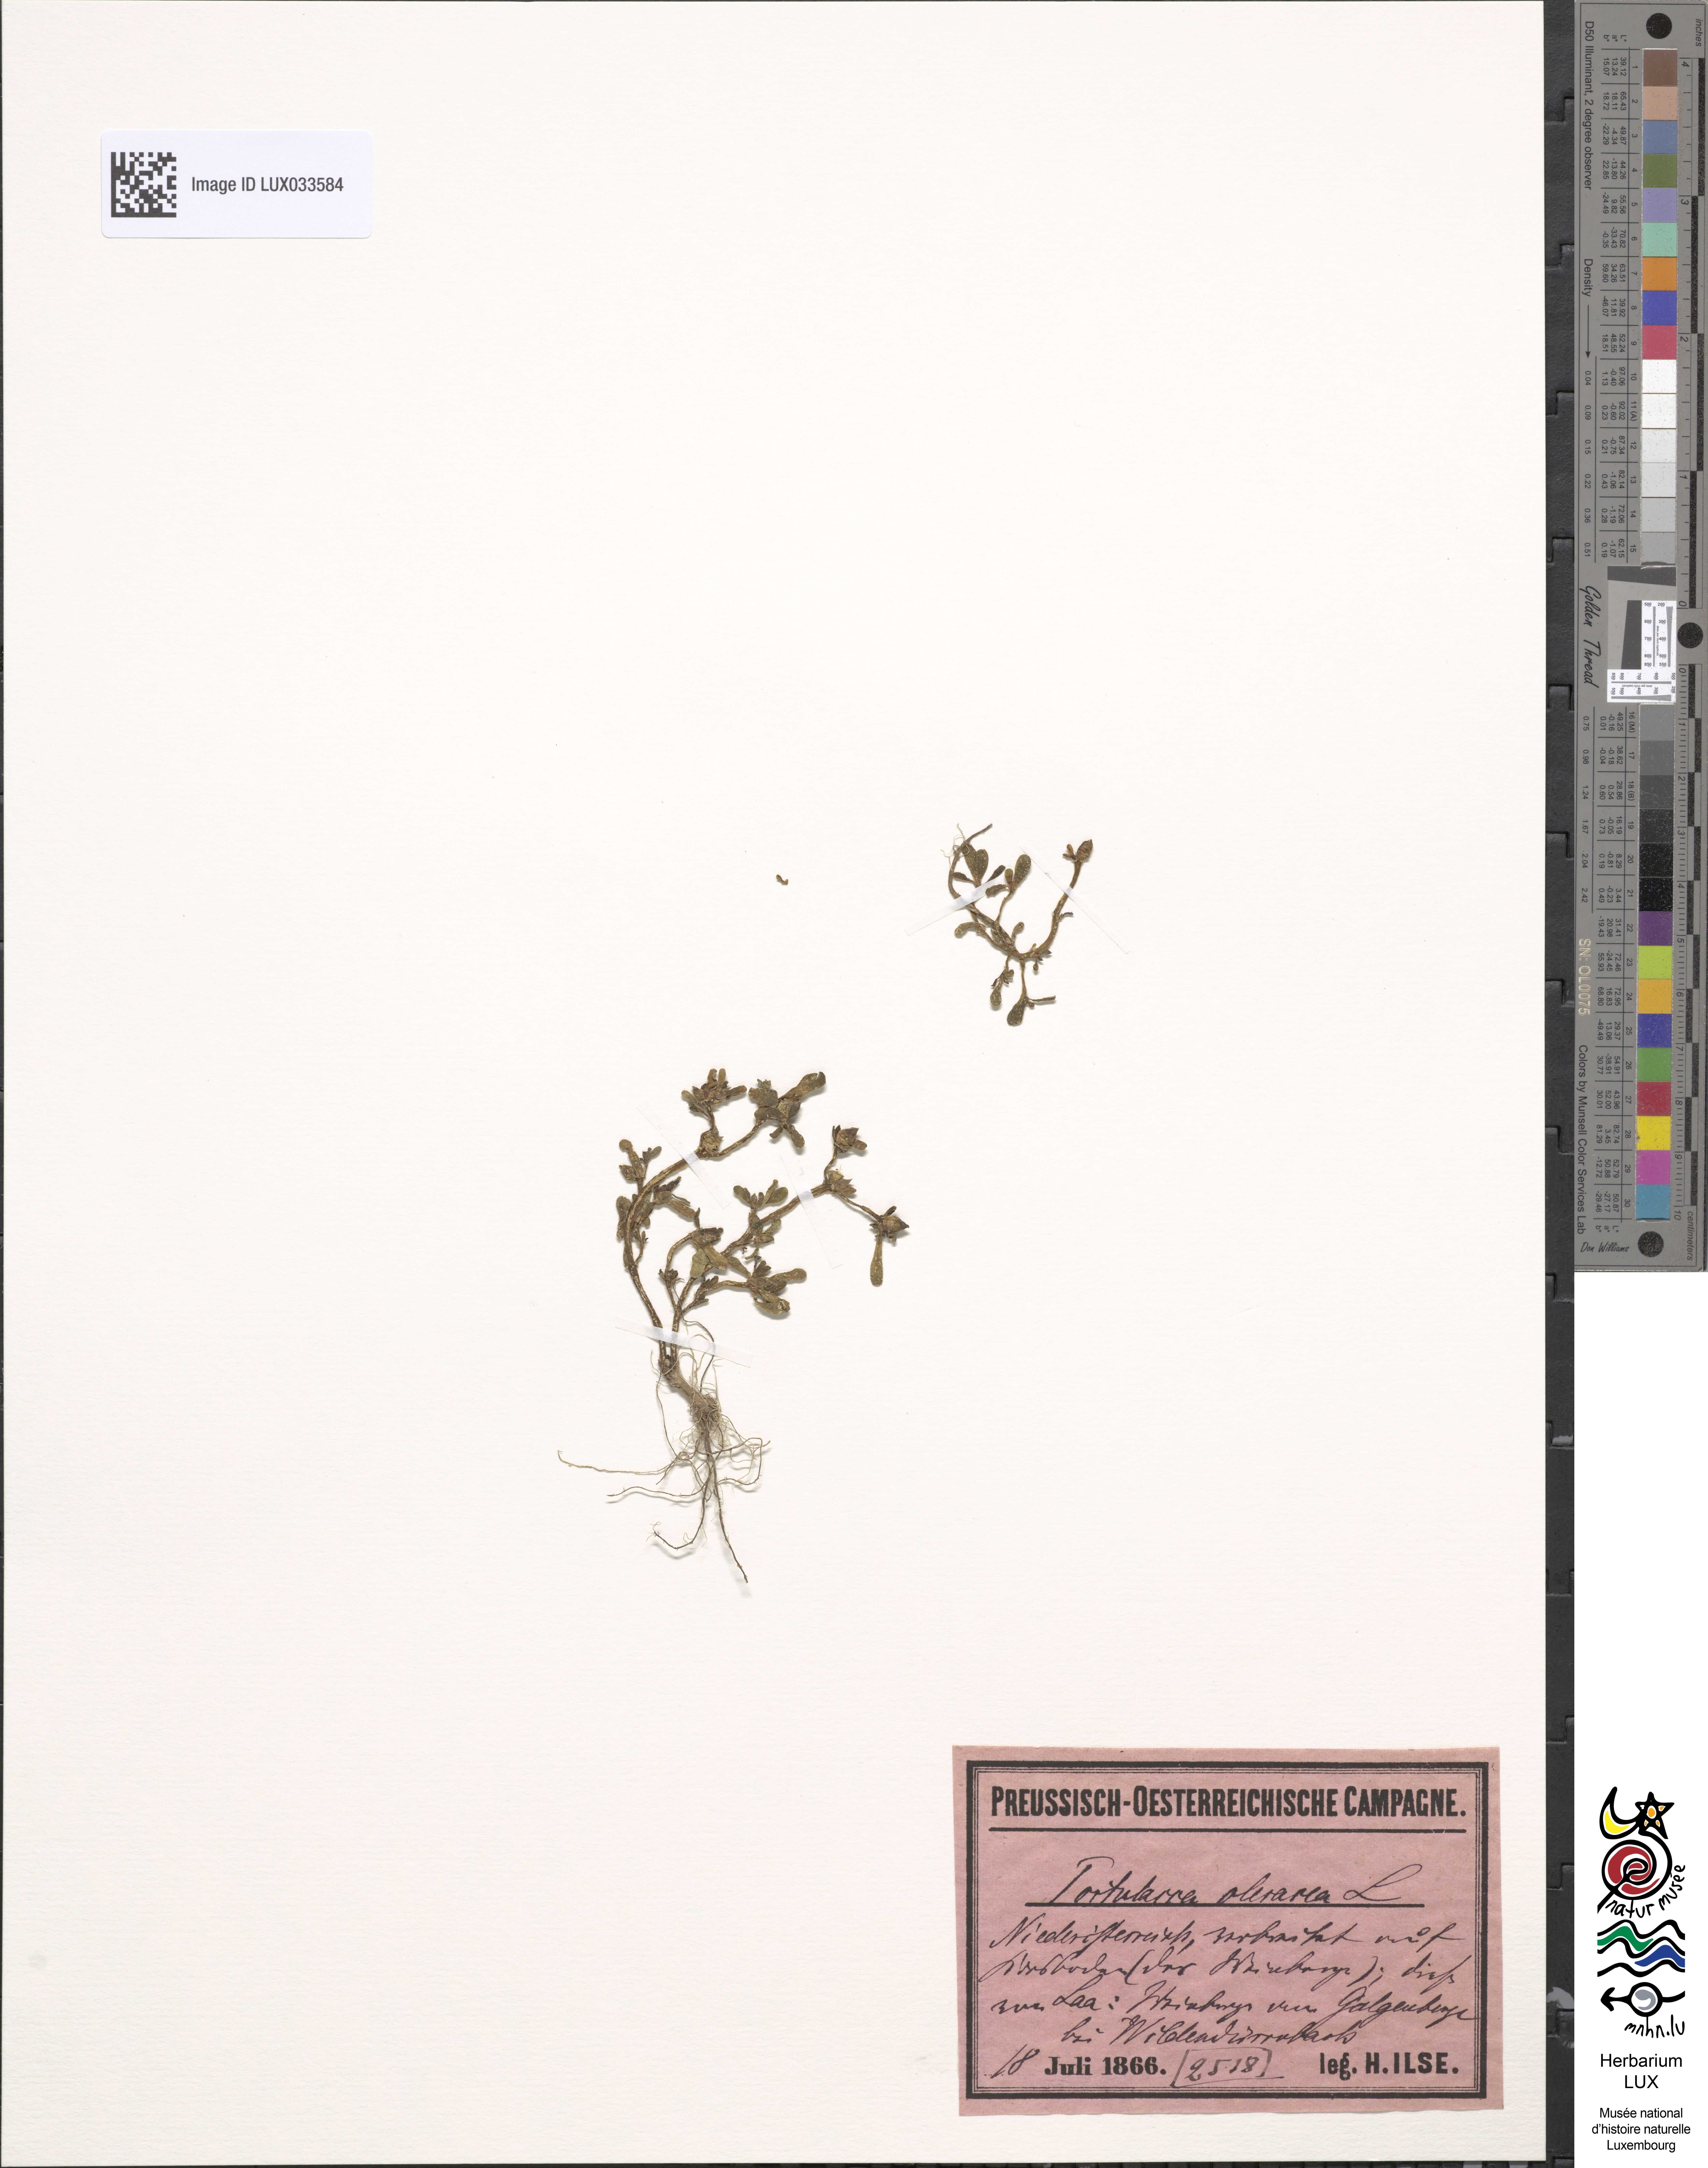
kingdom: Plantae
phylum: Tracheophyta
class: Magnoliopsida
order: Caryophyllales
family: Portulacaceae
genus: Portulaca
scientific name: Portulaca oleracea
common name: Common purslane
